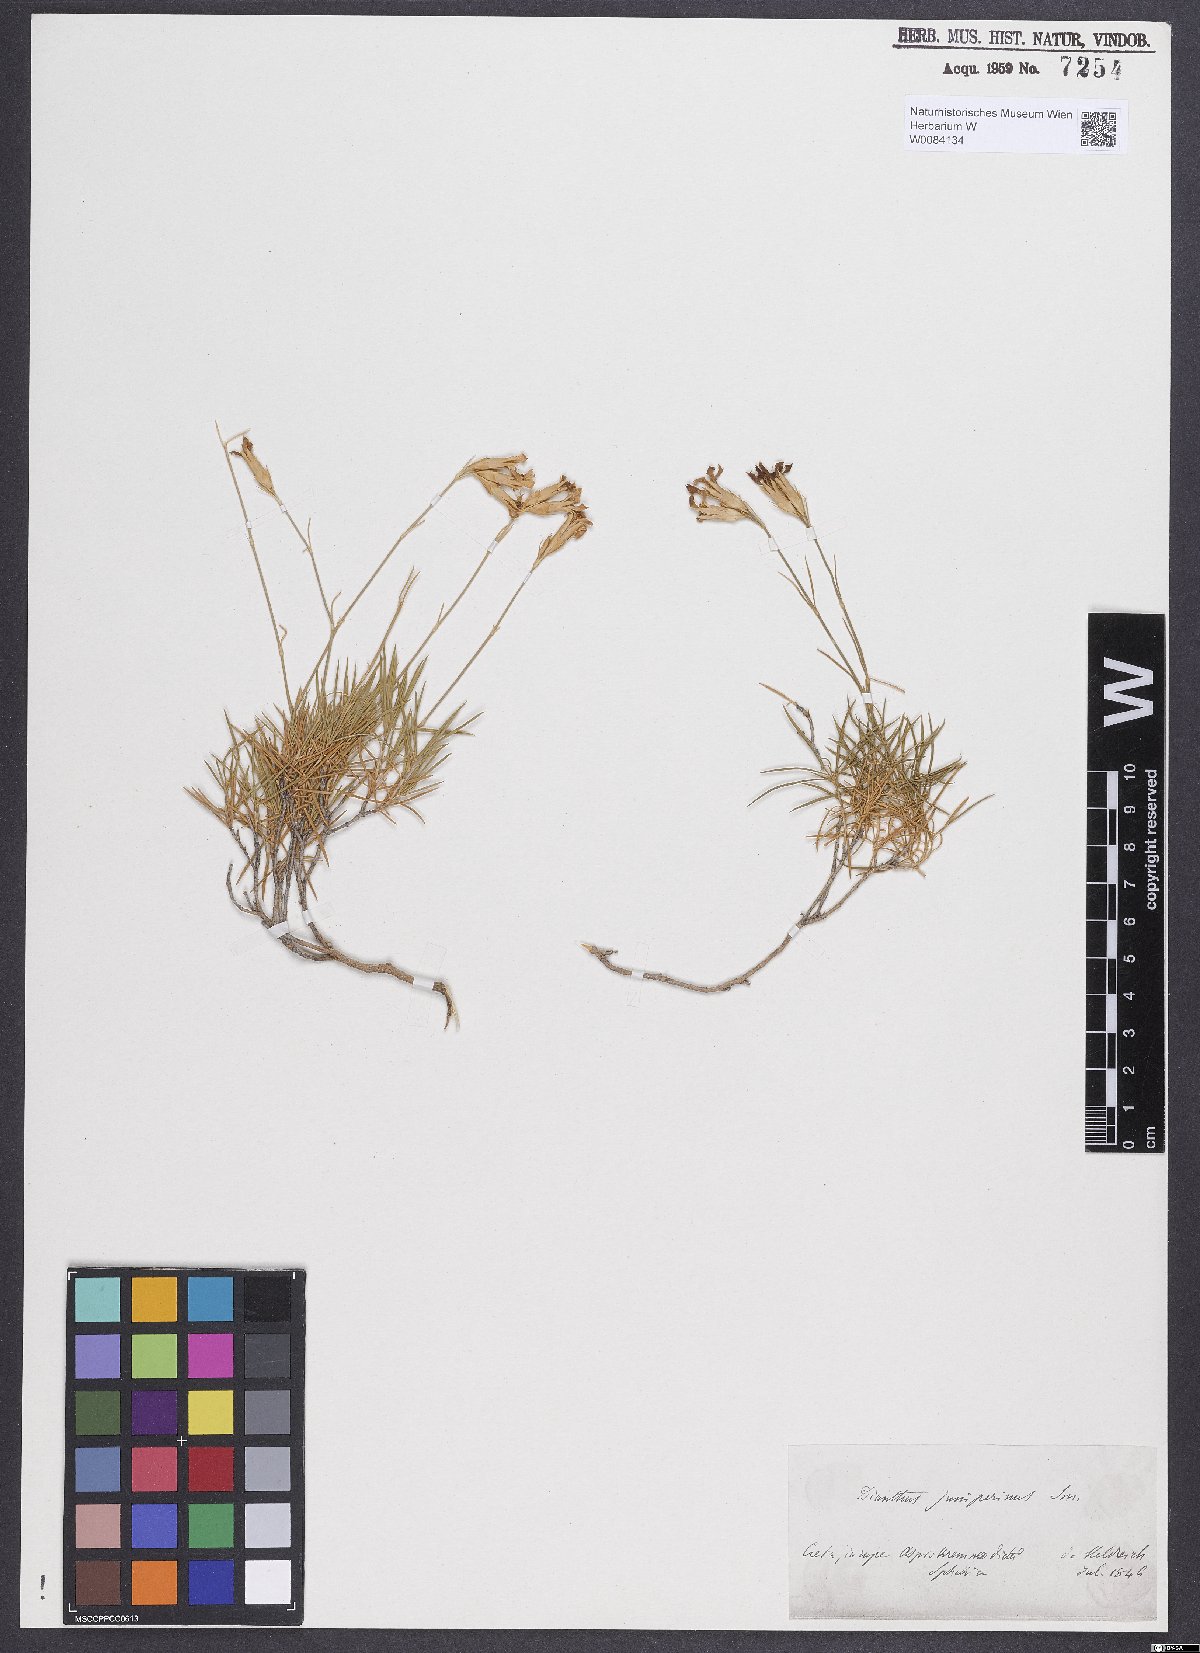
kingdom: Plantae
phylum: Tracheophyta
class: Magnoliopsida
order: Caryophyllales
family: Caryophyllaceae
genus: Dianthus
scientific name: Dianthus juniperinus
